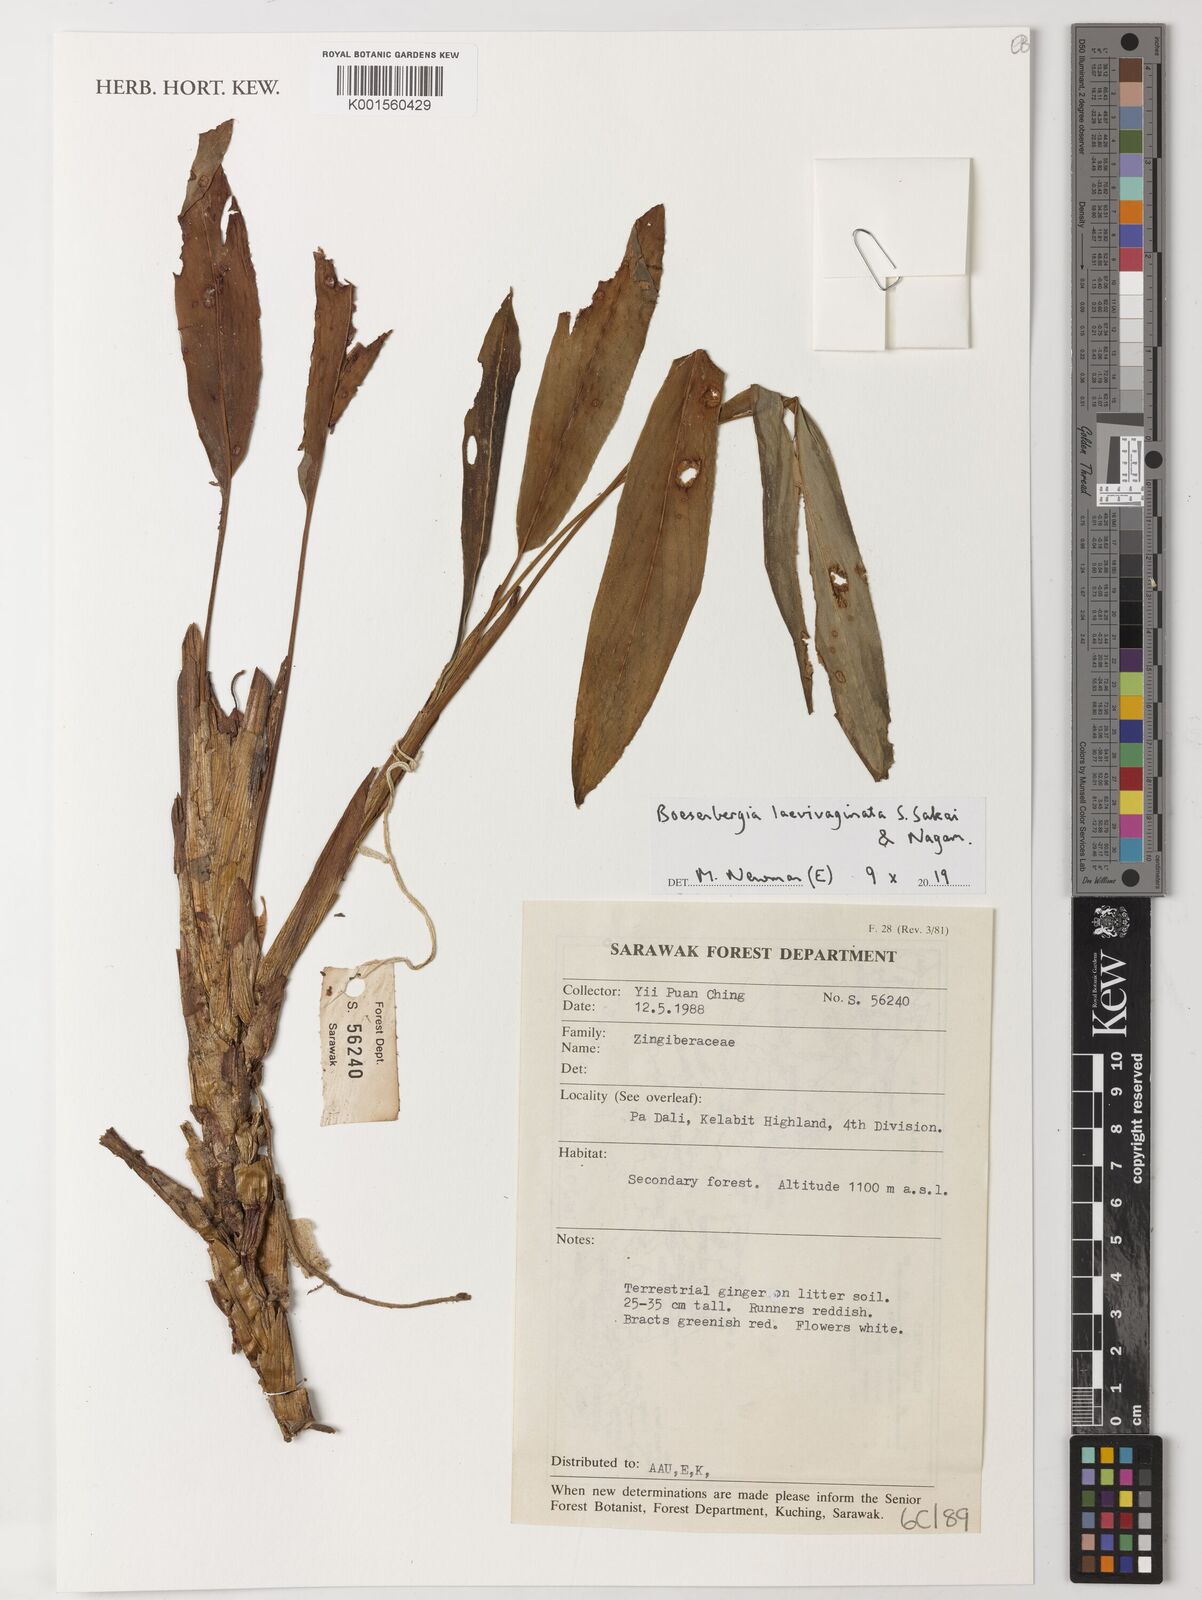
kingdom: Plantae
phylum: Tracheophyta
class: Liliopsida
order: Zingiberales
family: Zingiberaceae
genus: Boesenbergia
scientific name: Boesenbergia laevivaginata
